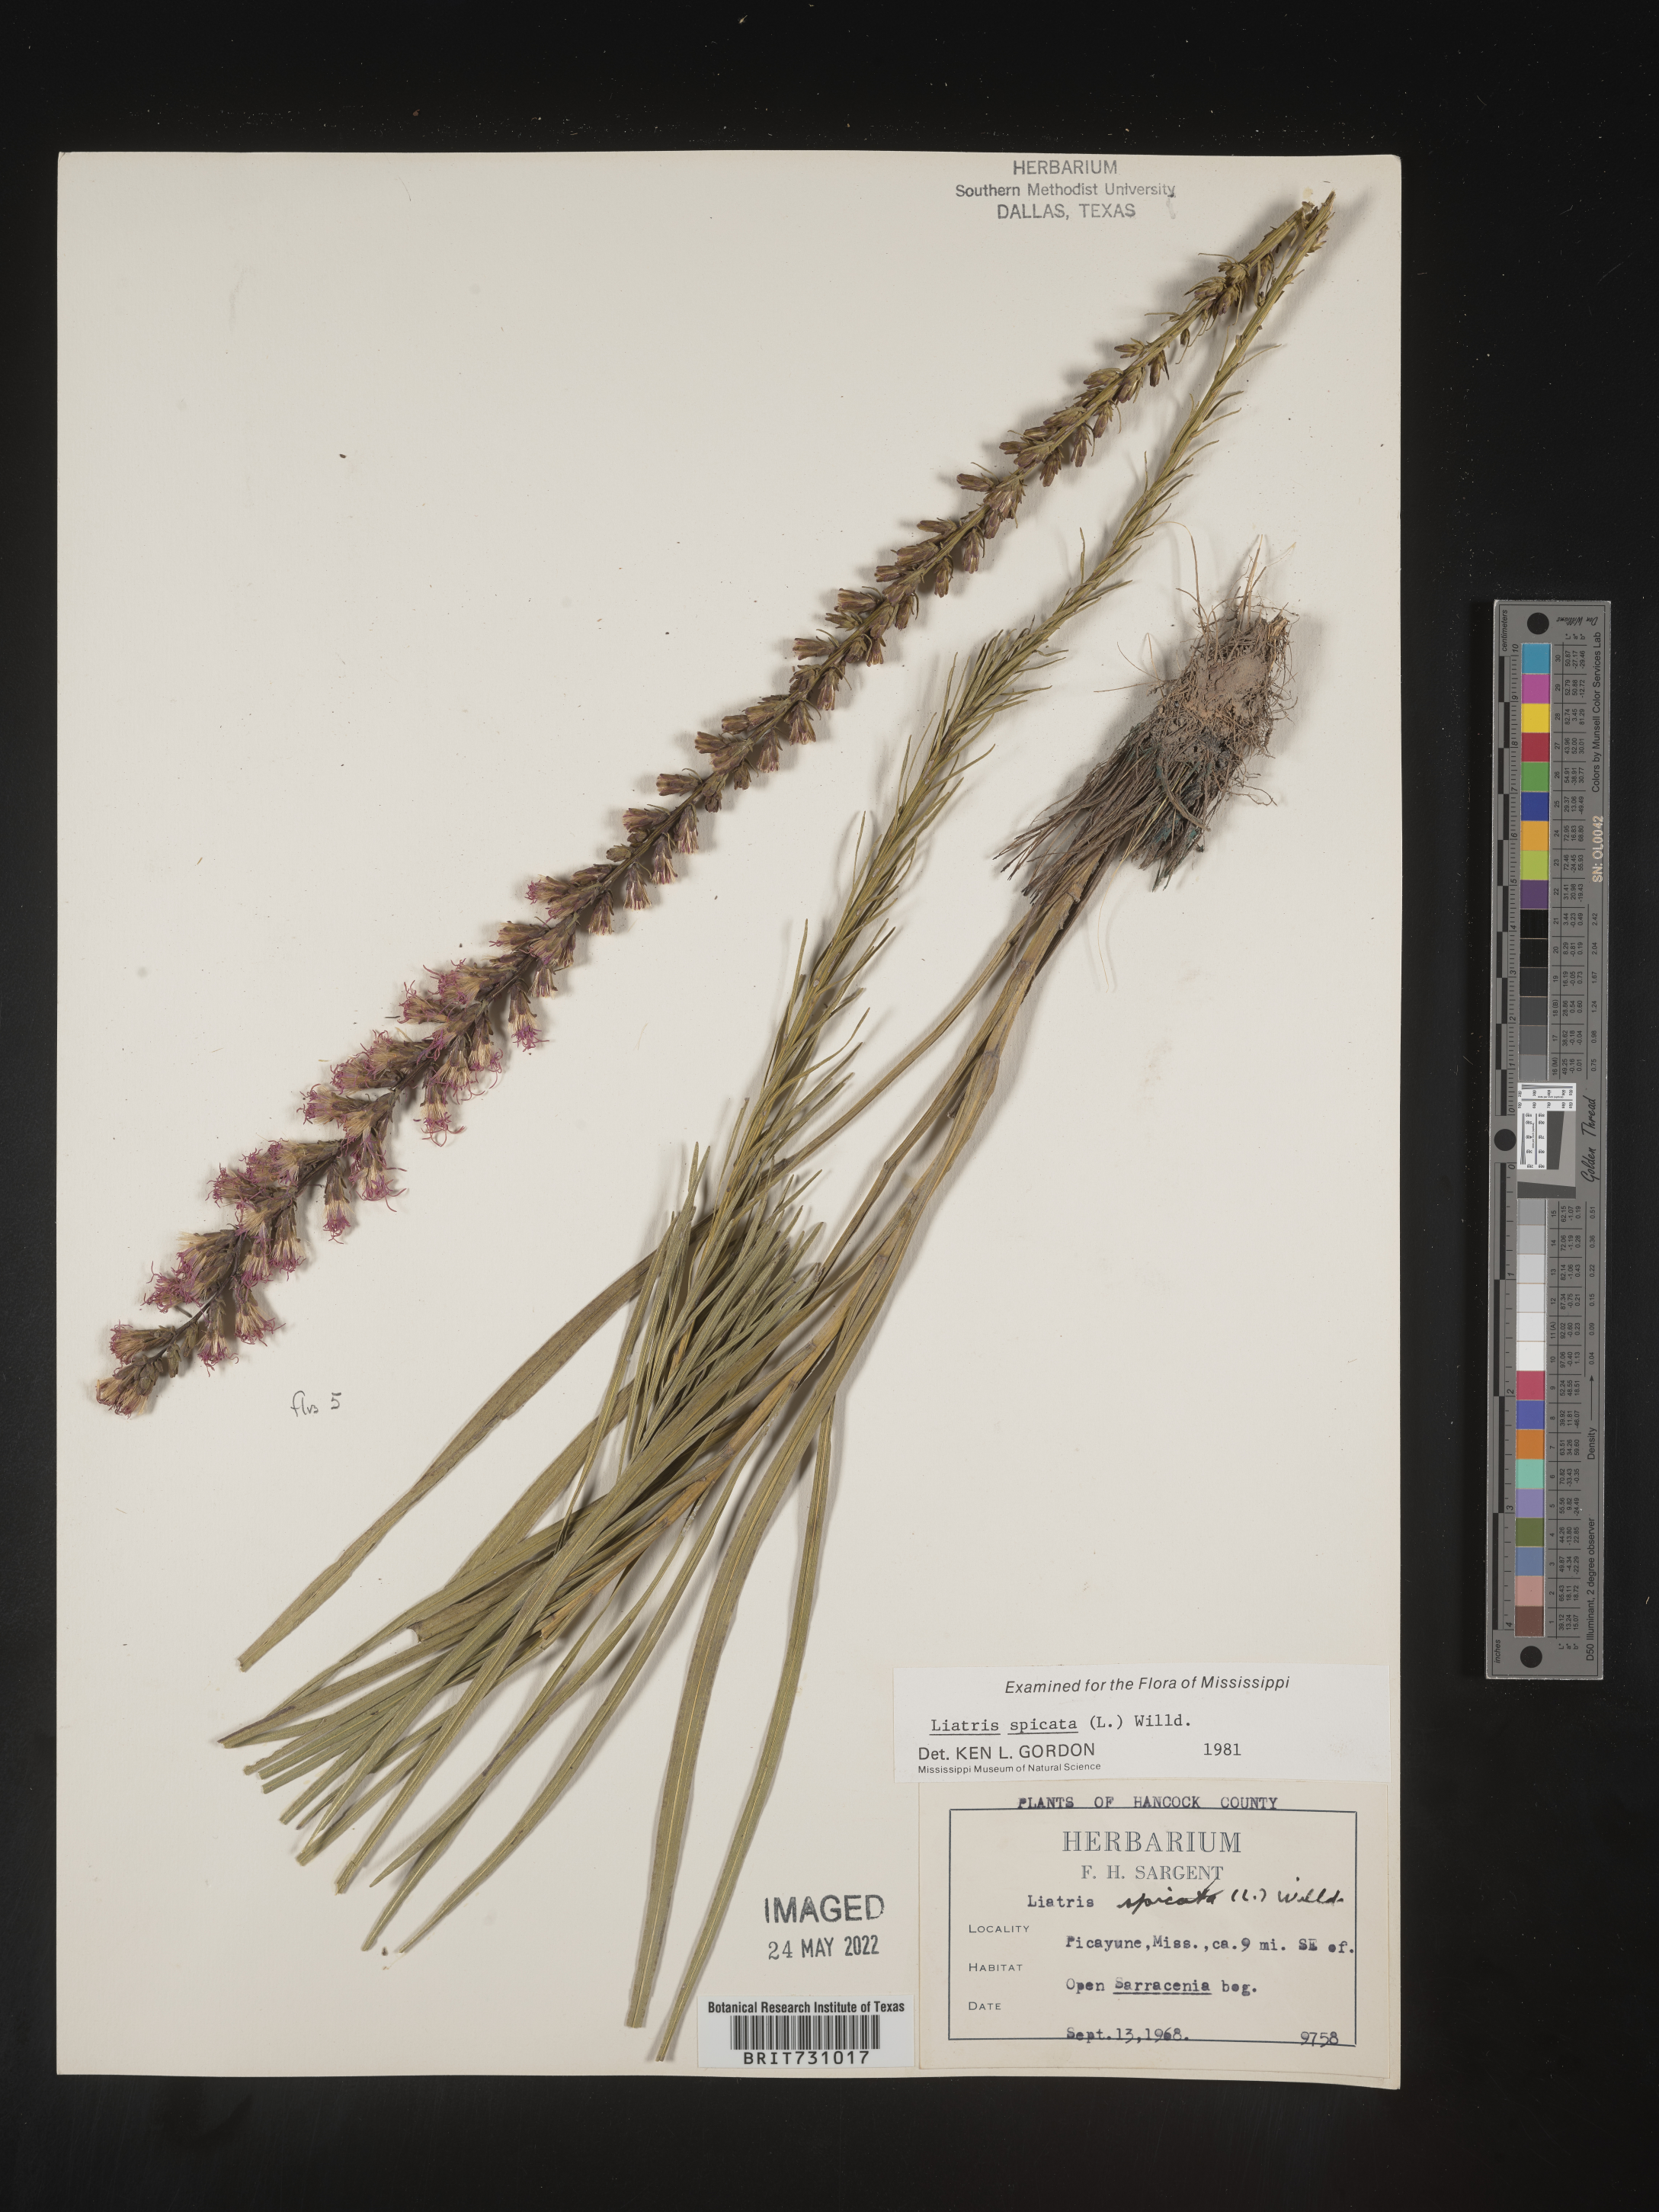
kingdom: Plantae
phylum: Tracheophyta
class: Magnoliopsida
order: Asterales
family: Asteraceae
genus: Liatris
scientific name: Liatris spicata
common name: Florist gayfeather
